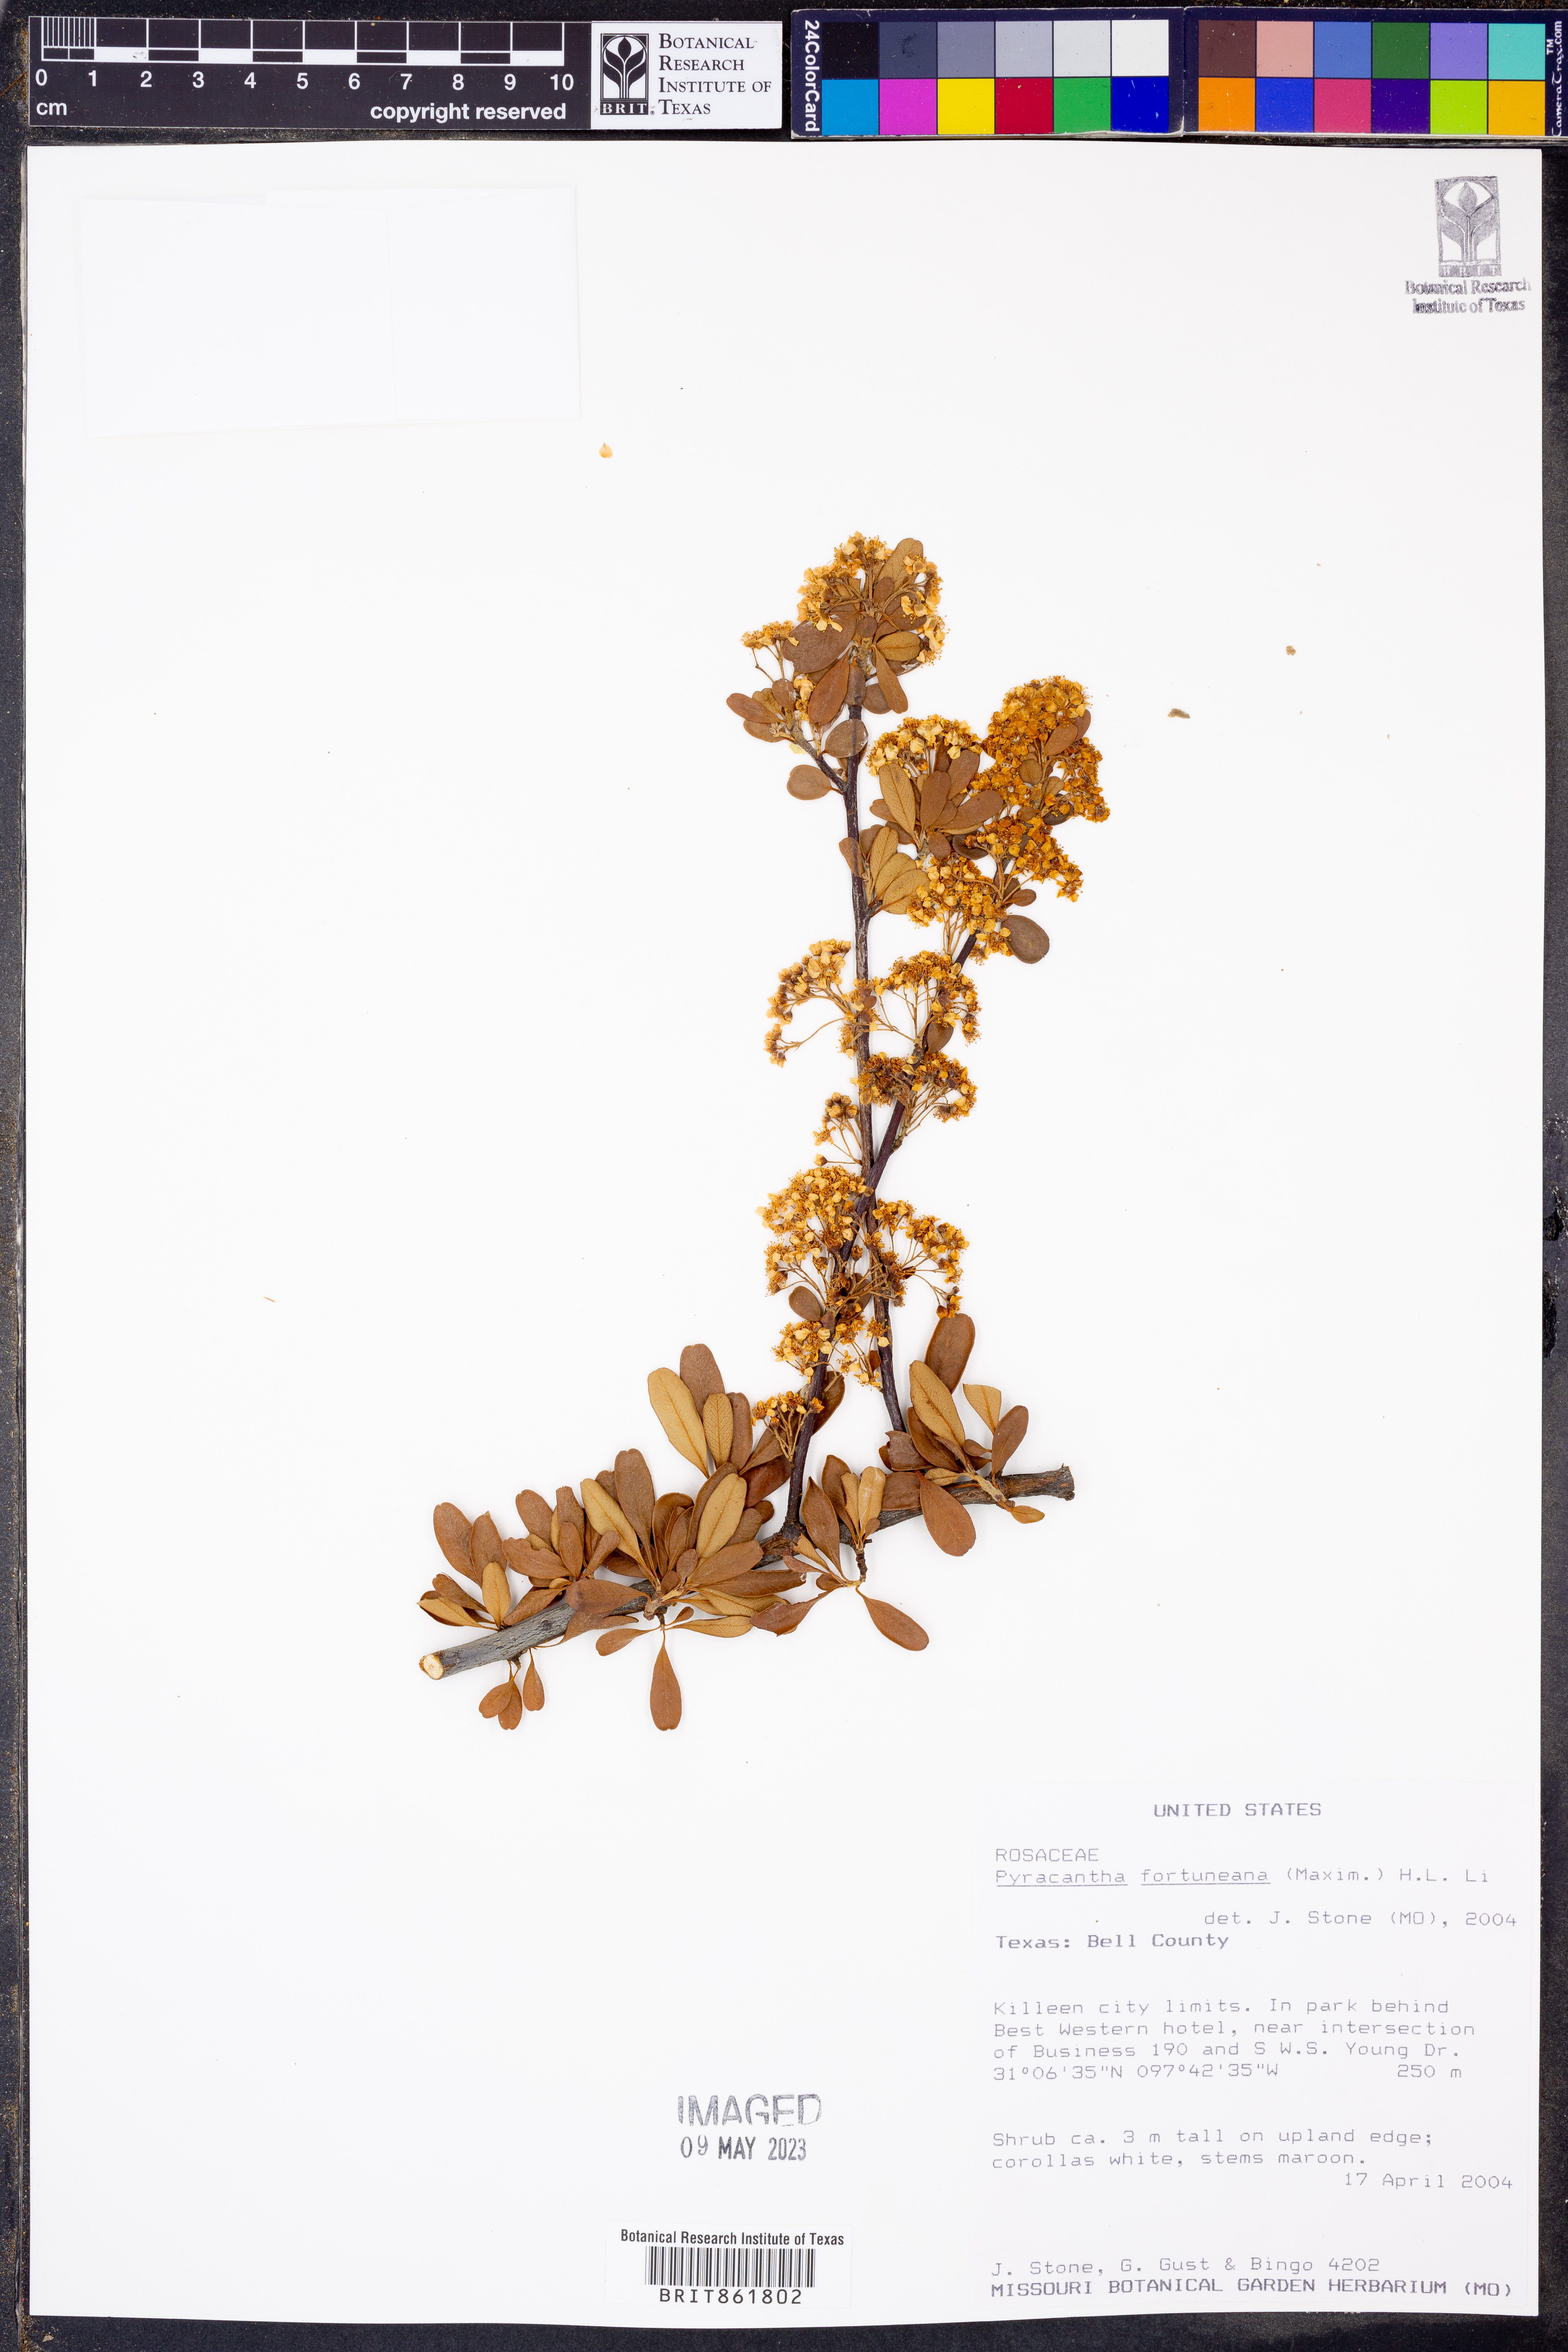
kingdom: Plantae
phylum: Tracheophyta
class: Magnoliopsida
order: Rosales
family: Rosaceae
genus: Pyracantha
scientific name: Pyracantha fortuneana
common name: Chinese firethorn
